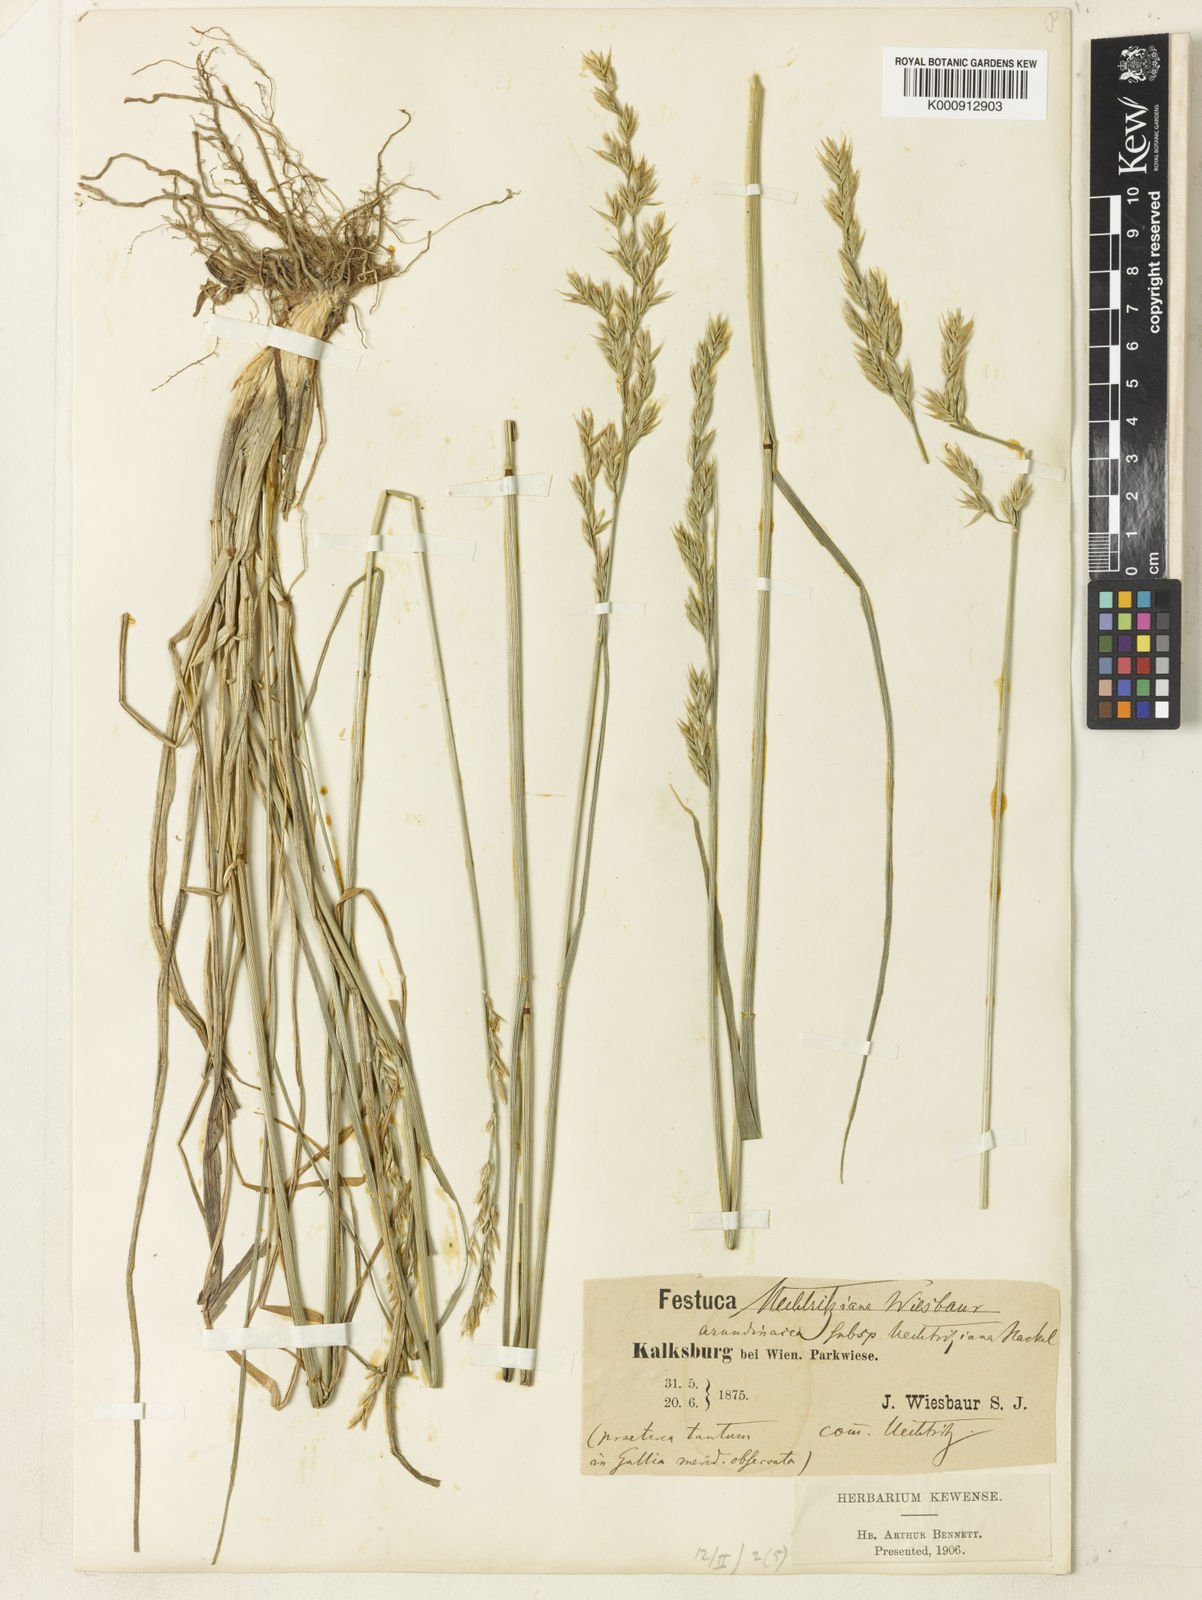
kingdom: Plantae
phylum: Tracheophyta
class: Liliopsida
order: Poales
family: Poaceae
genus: Lolium
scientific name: Lolium arundinaceum
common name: Reed fescue
